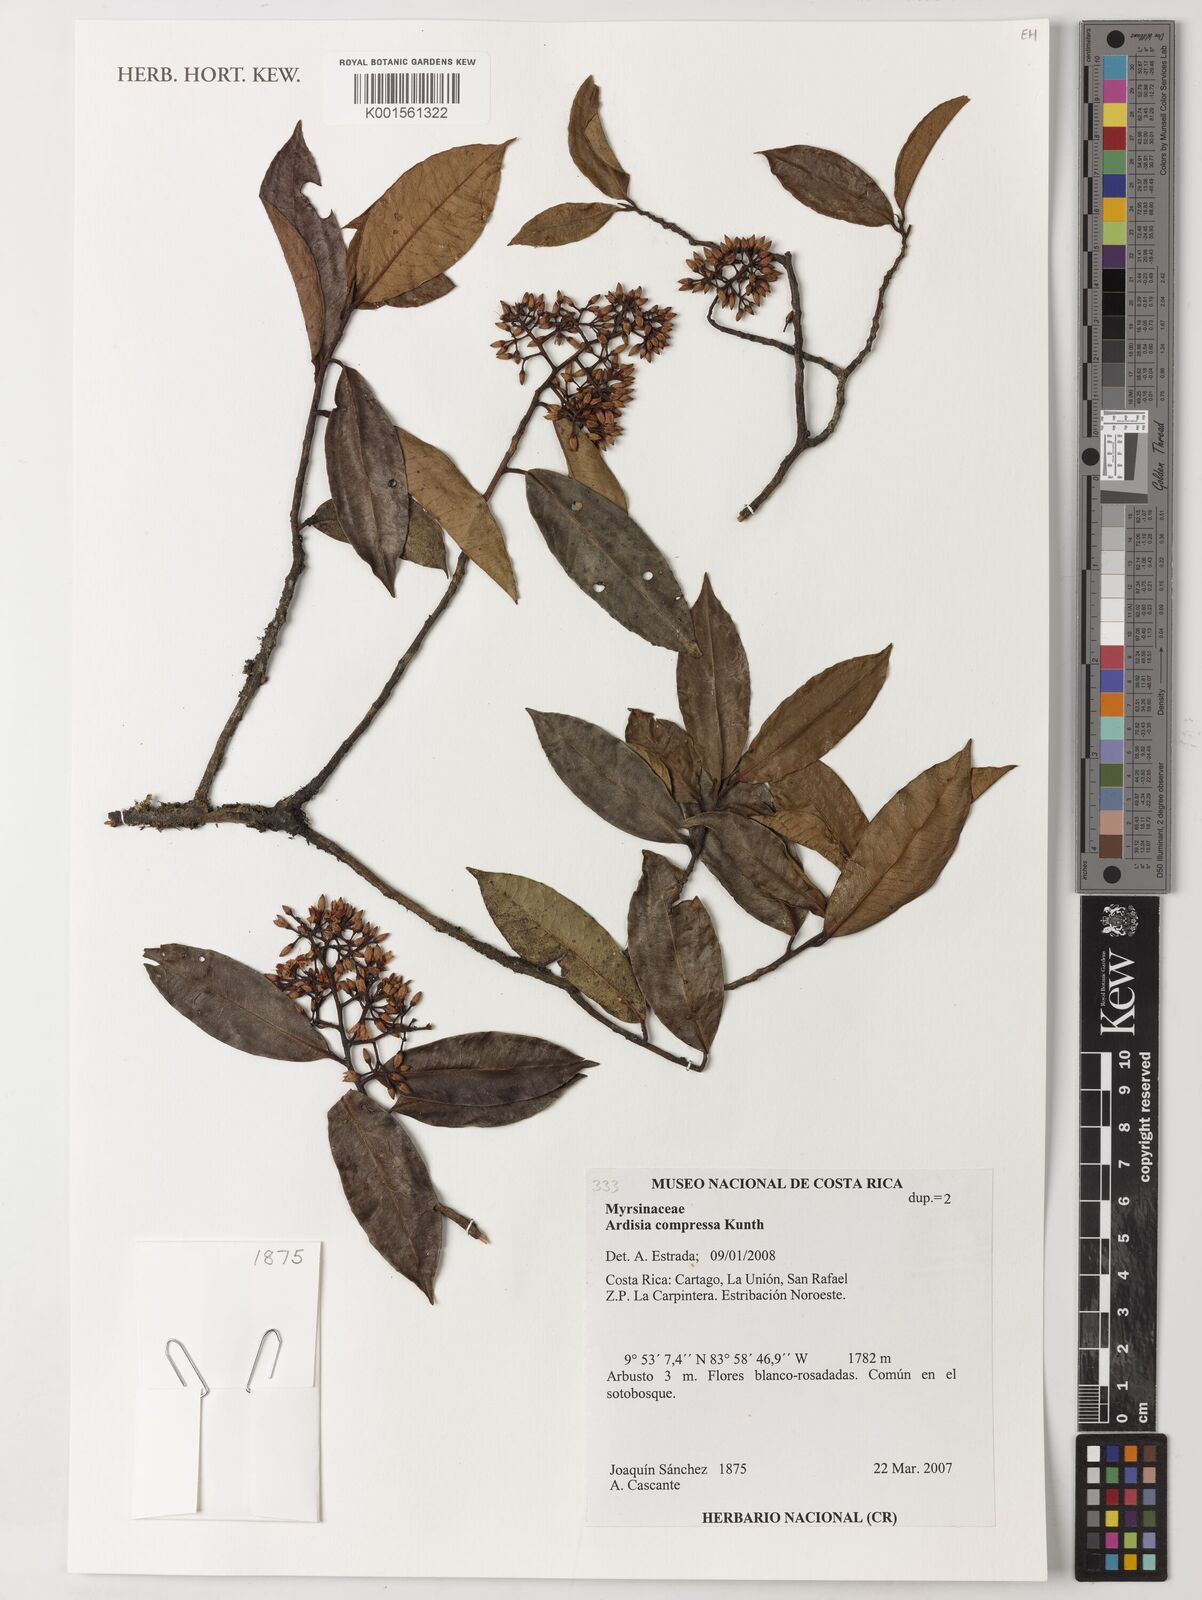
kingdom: Plantae
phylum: Tracheophyta
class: Magnoliopsida
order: Ericales
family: Primulaceae
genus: Ardisia
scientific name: Ardisia compressa
